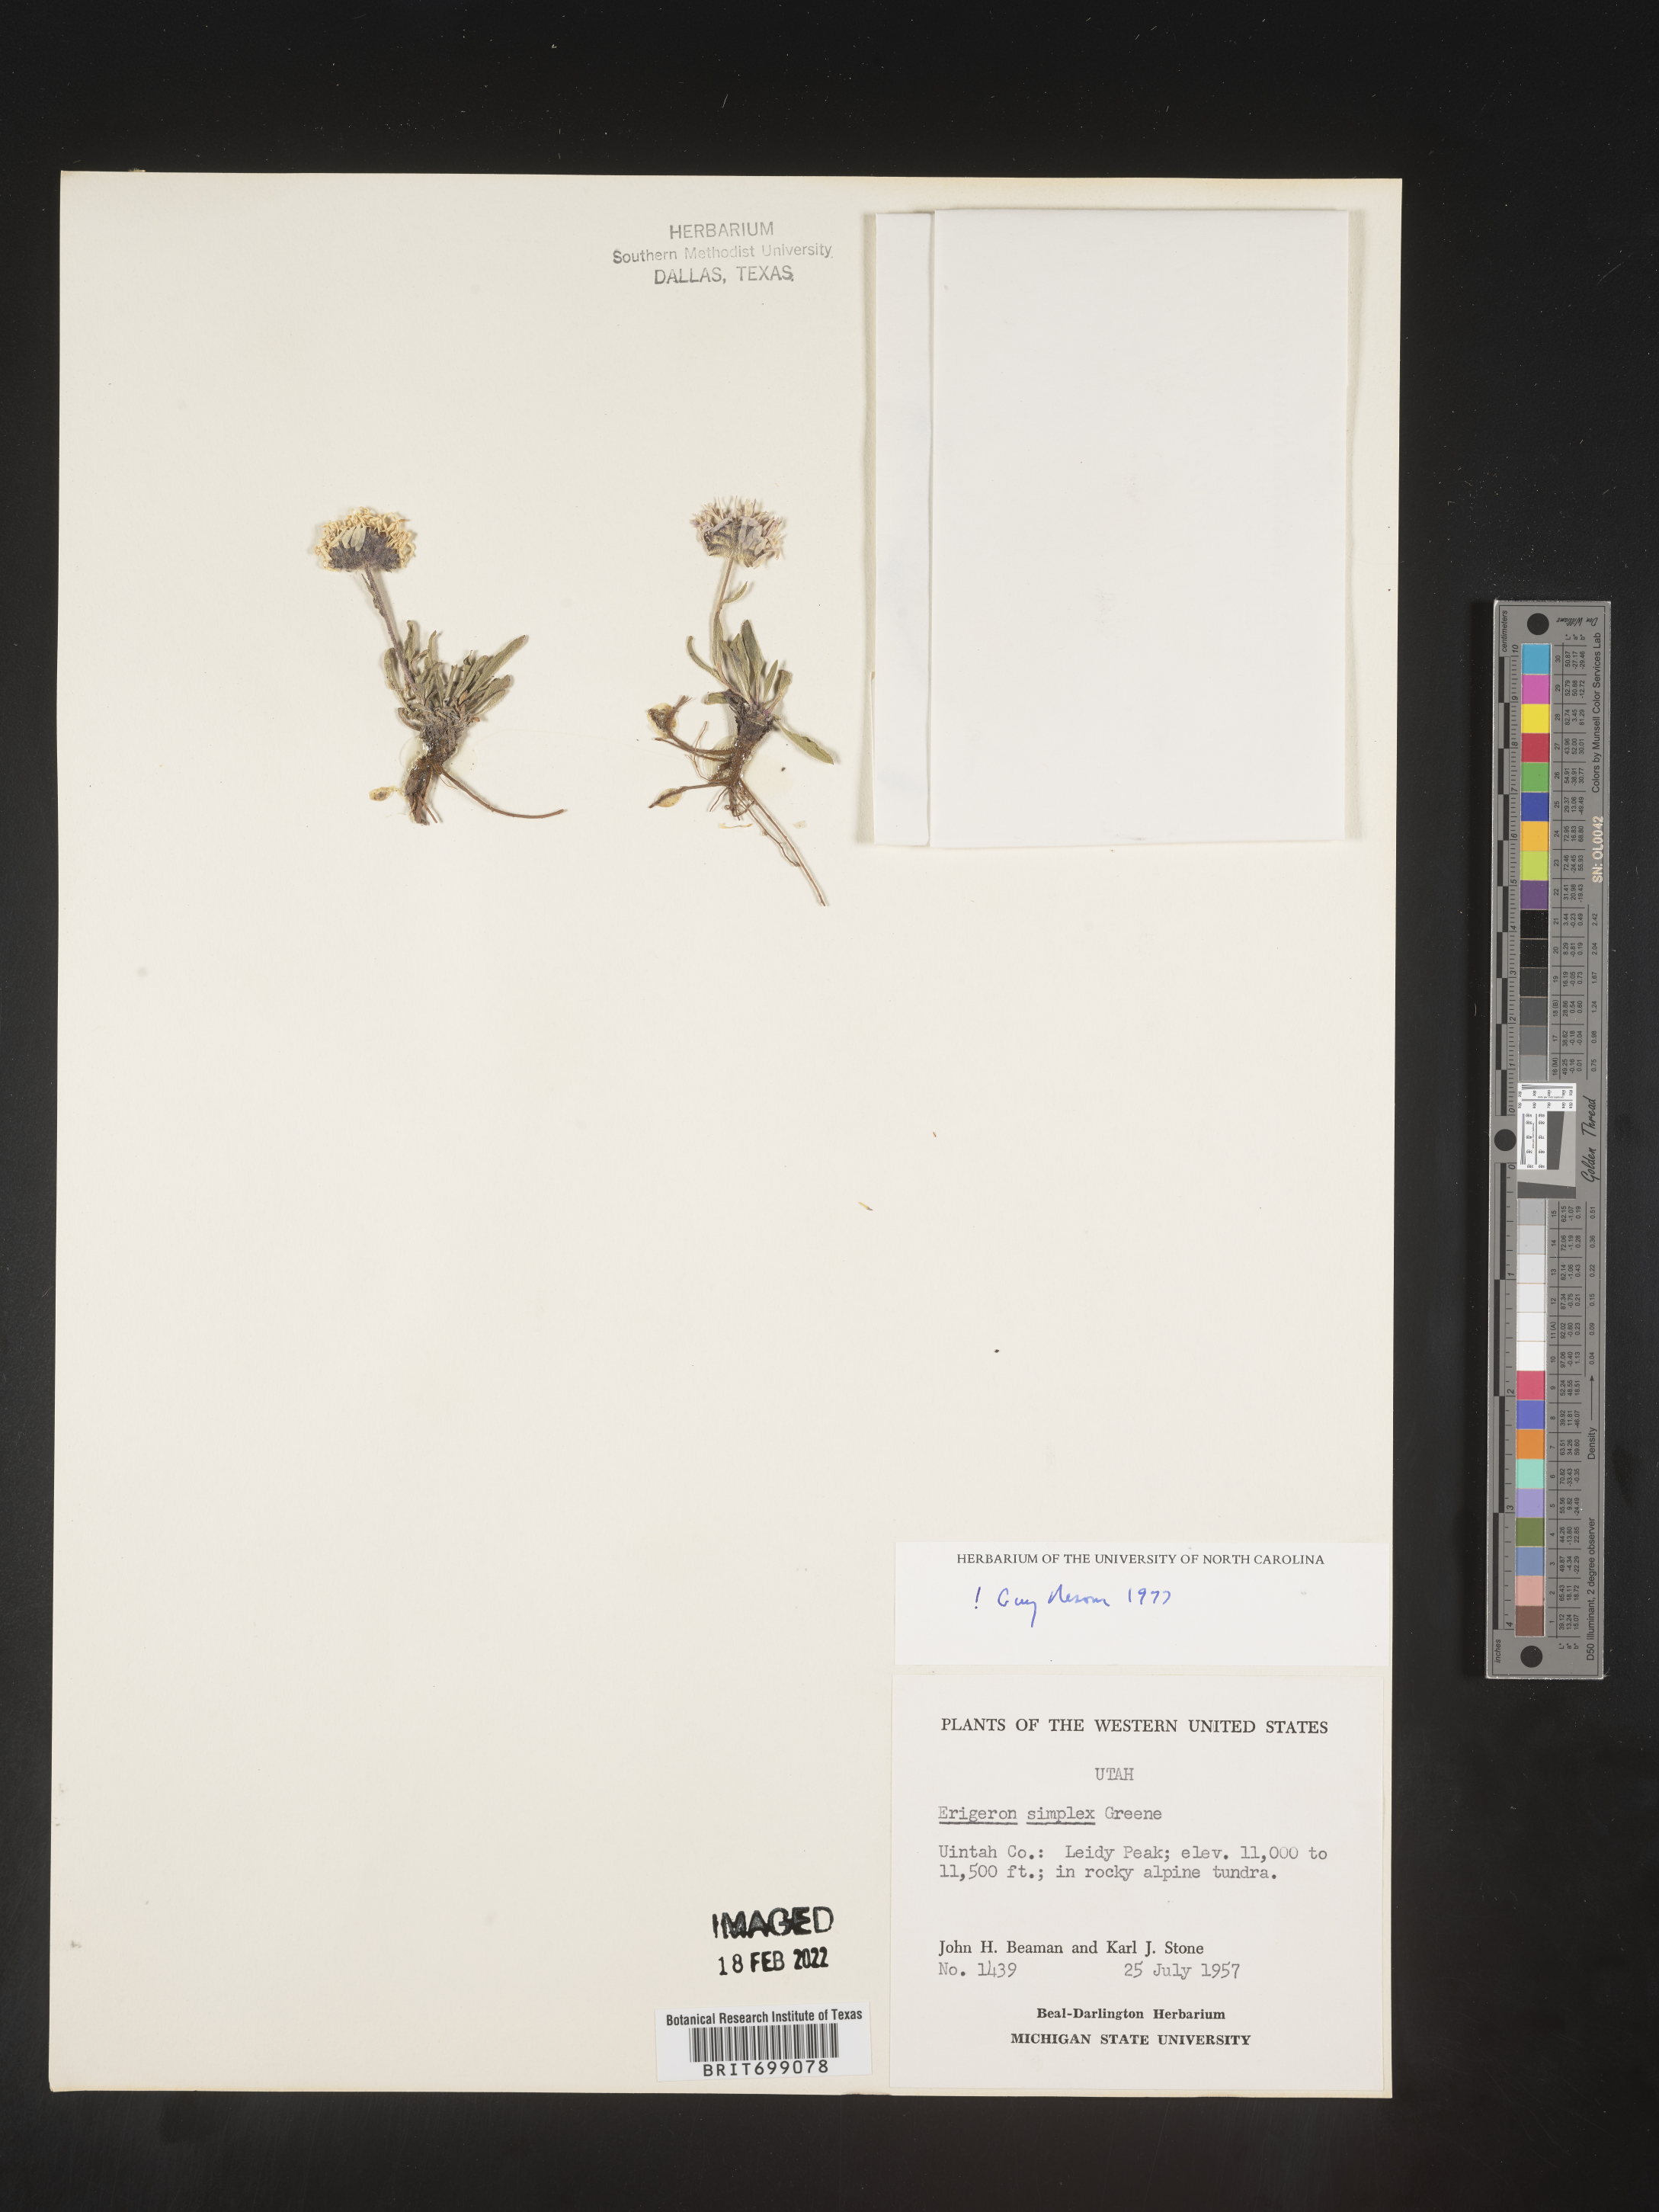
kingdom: Plantae
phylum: Tracheophyta
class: Magnoliopsida
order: Asterales
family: Asteraceae
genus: Erigeron
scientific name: Erigeron caucasicus
